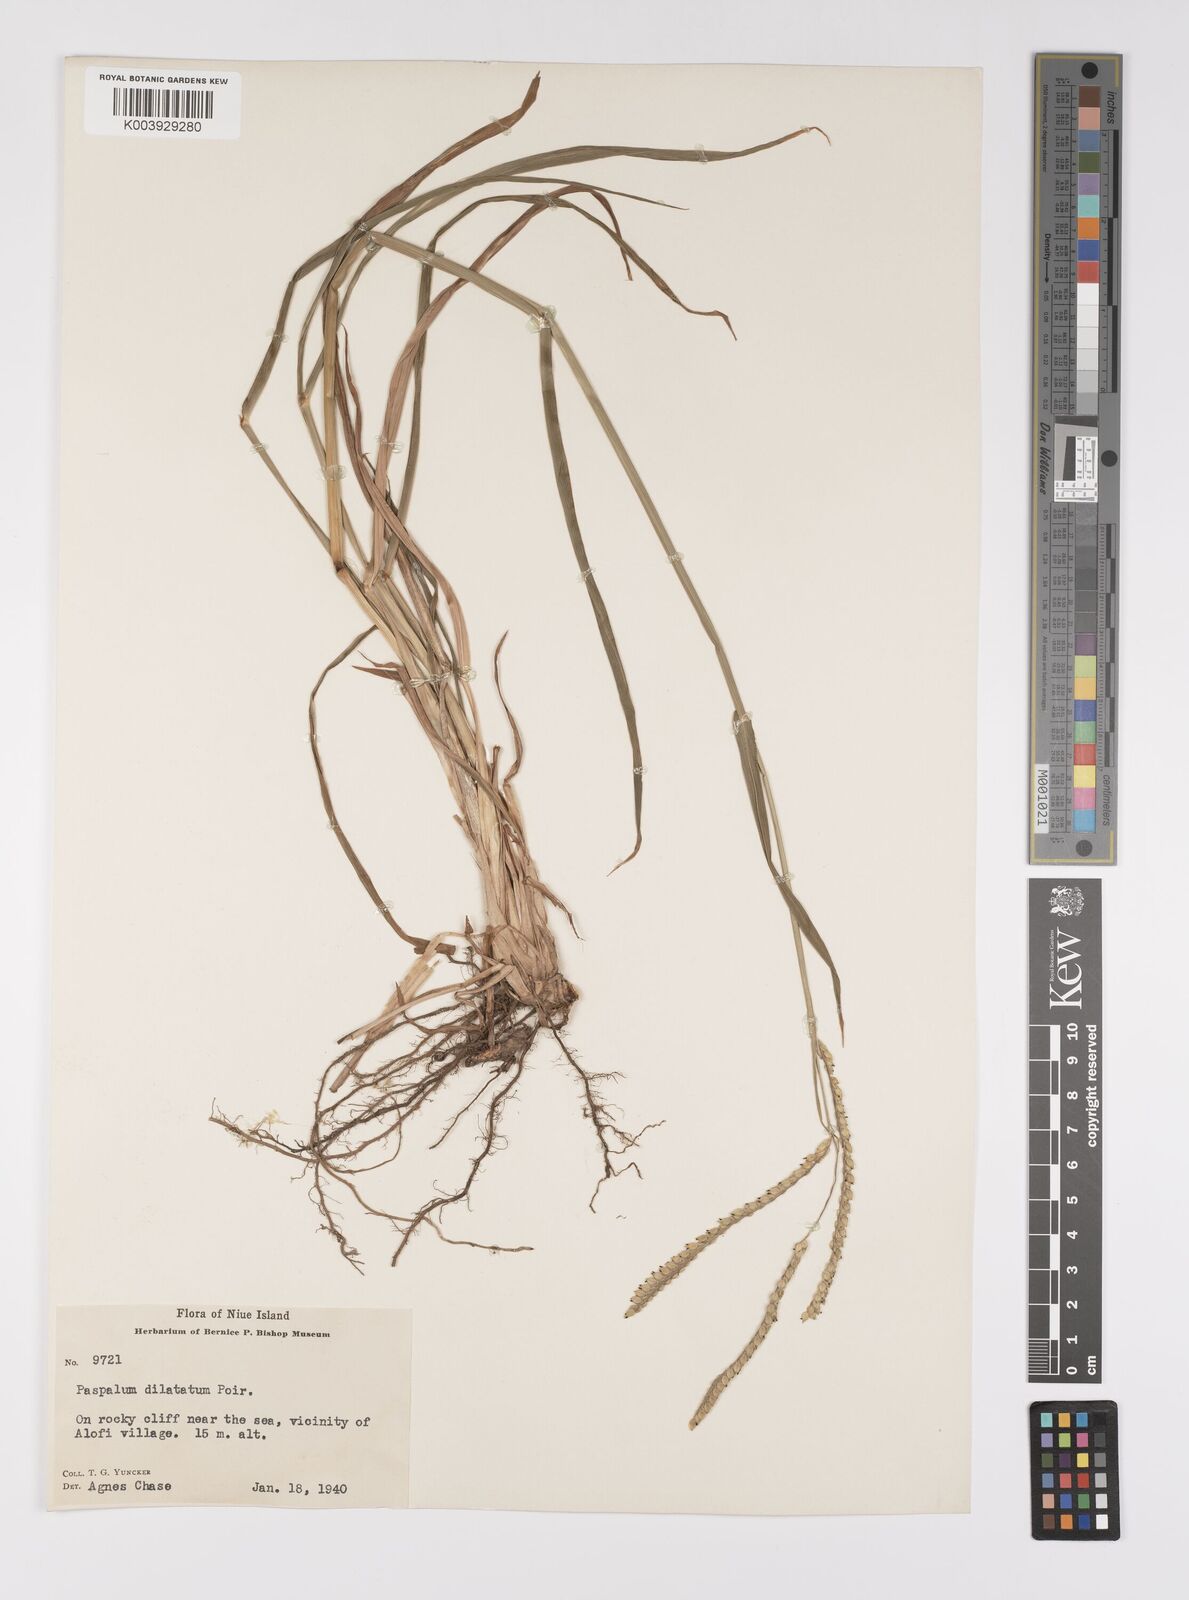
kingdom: Plantae
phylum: Tracheophyta
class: Liliopsida
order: Poales
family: Poaceae
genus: Paspalum
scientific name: Paspalum dilatatum
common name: Dallisgrass
